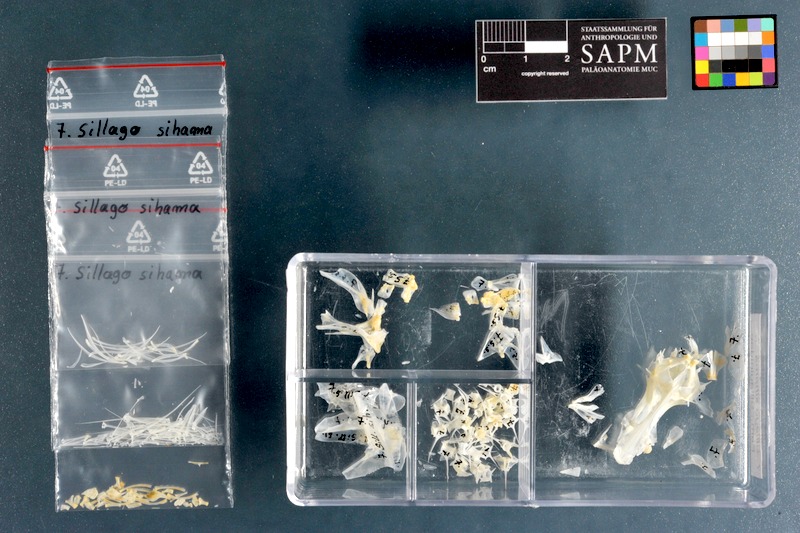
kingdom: Animalia
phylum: Chordata
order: Perciformes
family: Sillaginidae
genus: Sillago
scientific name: Sillago sihama
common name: Silver sillago
